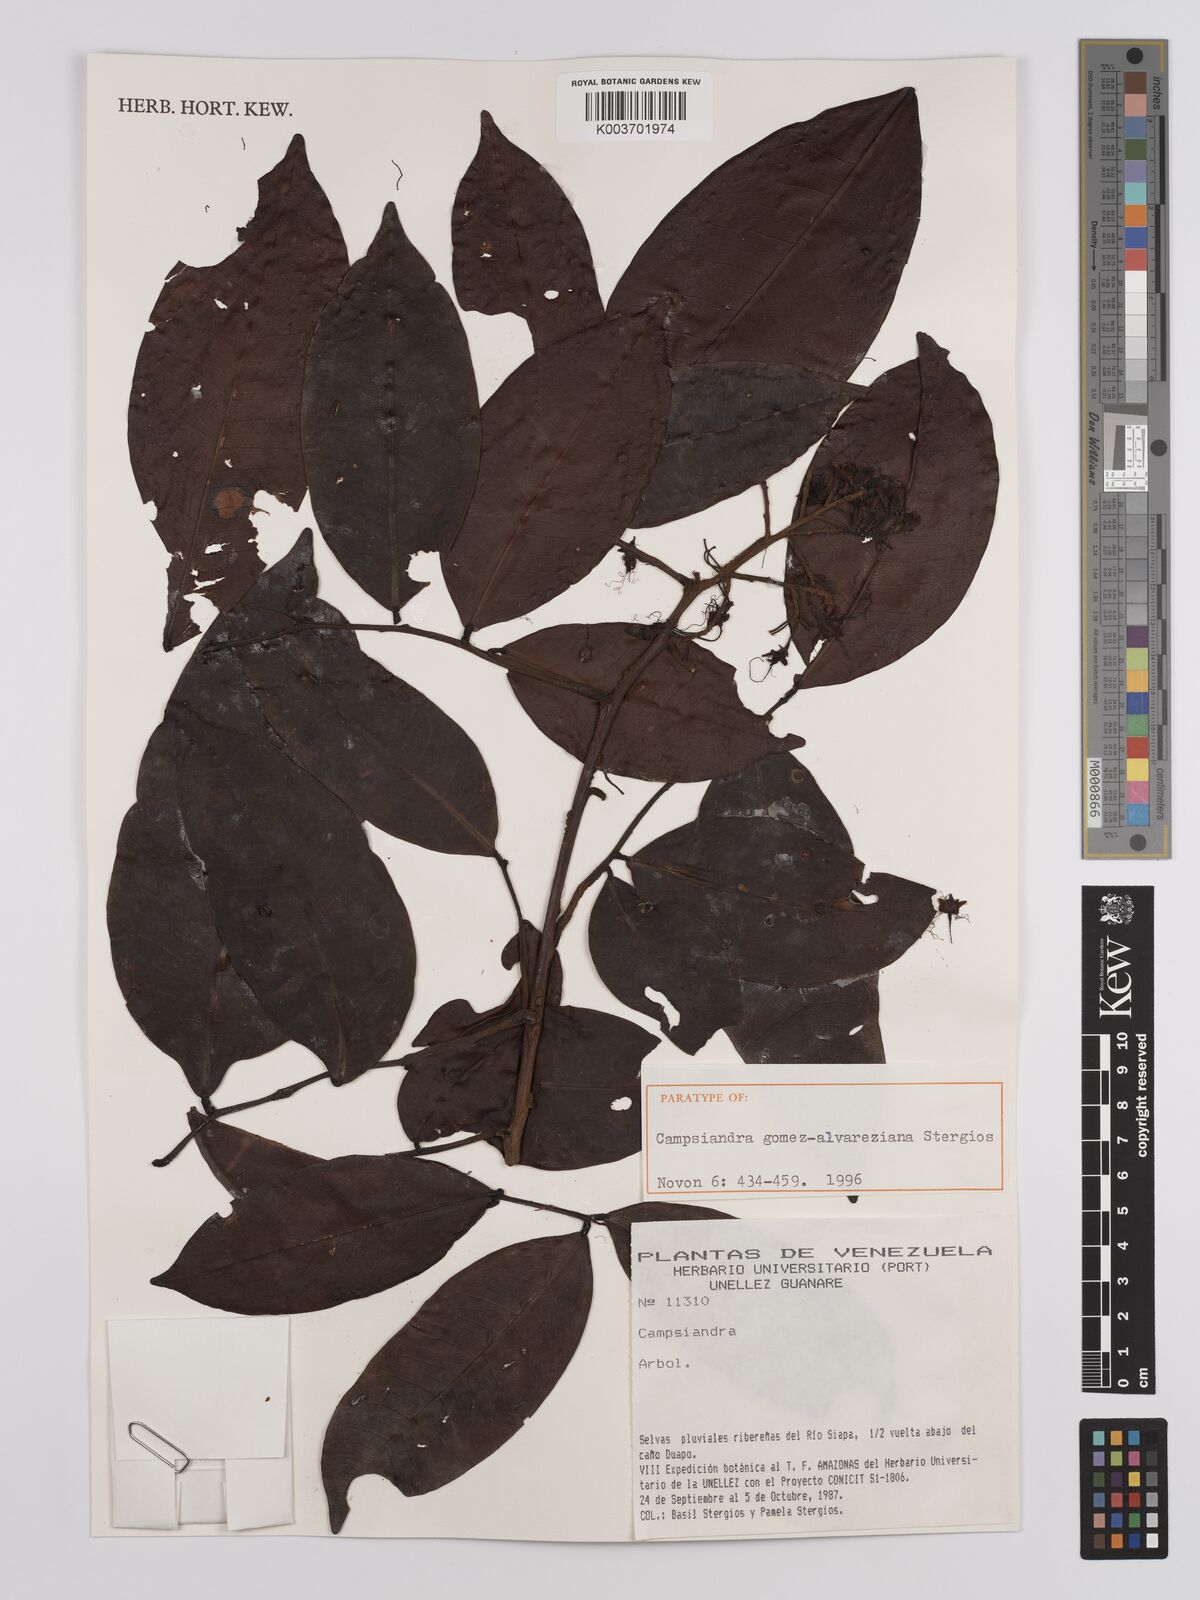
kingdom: Plantae
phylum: Tracheophyta
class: Magnoliopsida
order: Fabales
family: Fabaceae
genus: Campsiandra
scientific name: Campsiandra gomez-alvareziana
